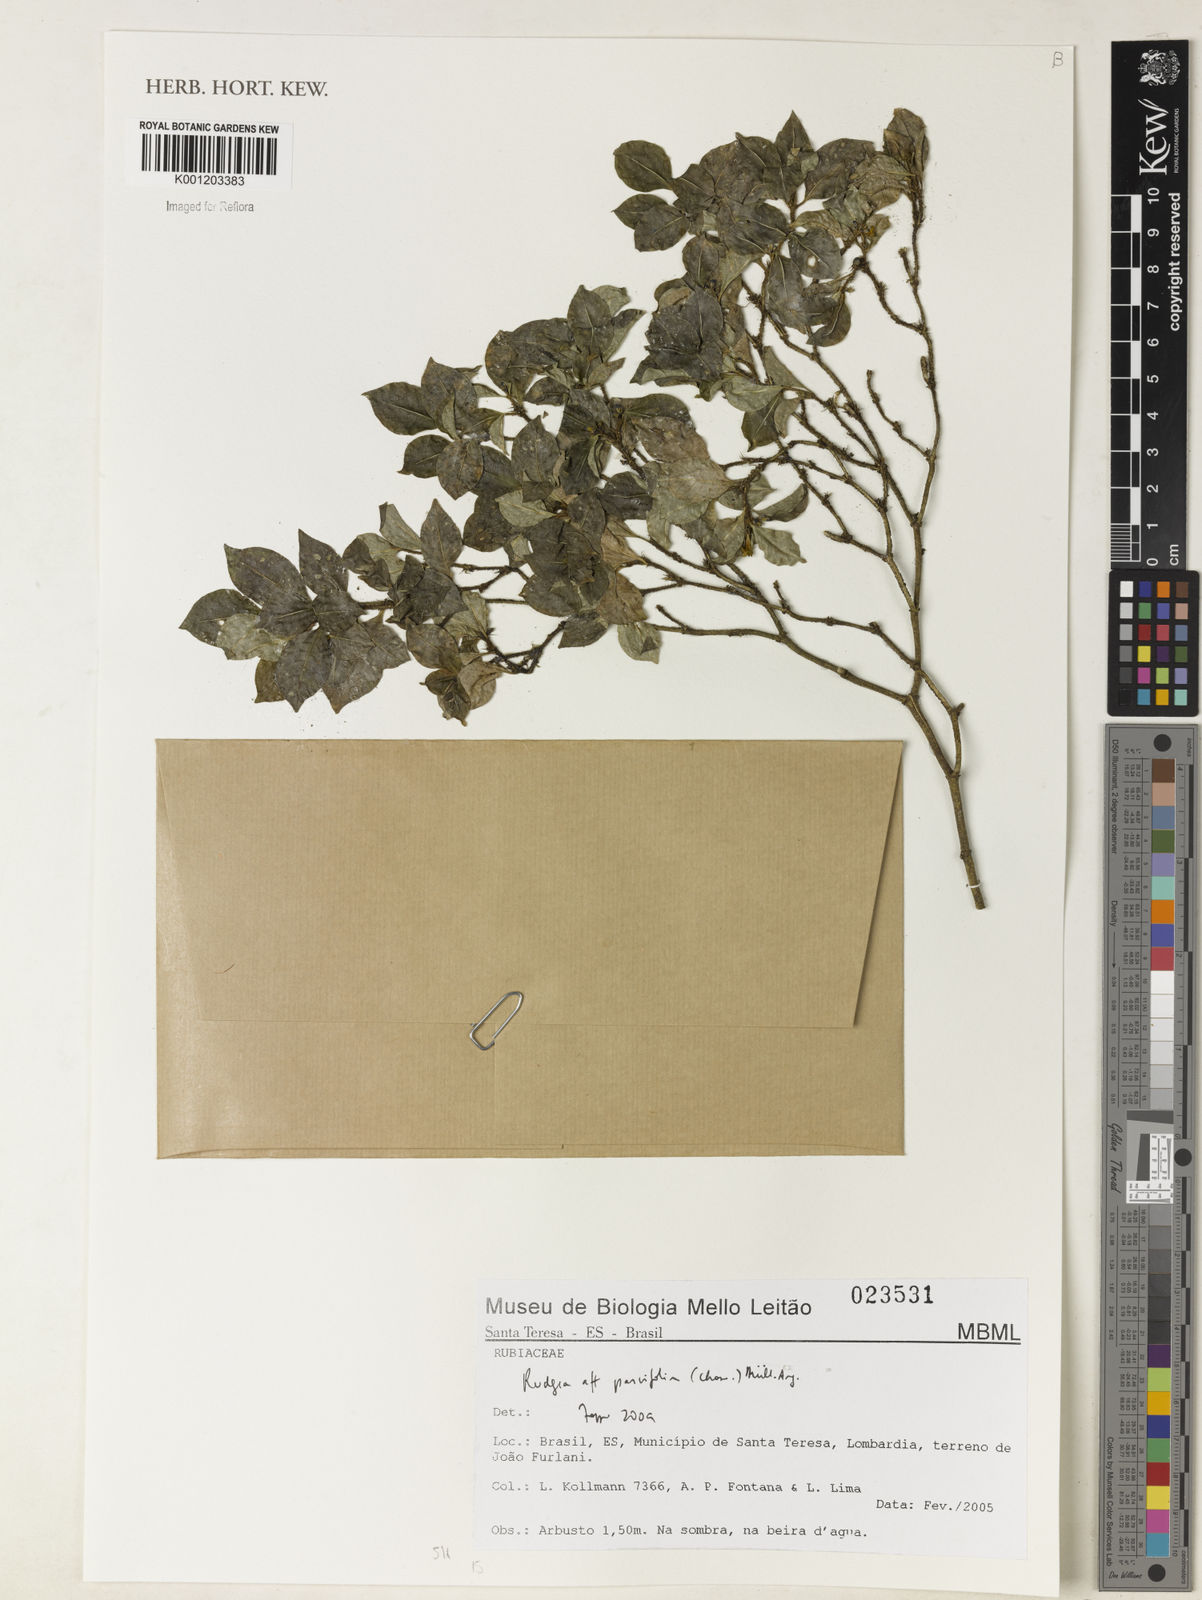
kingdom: Plantae
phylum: Tracheophyta
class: Magnoliopsida
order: Gentianales
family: Rubiaceae
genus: Rudgea
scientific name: Rudgea
